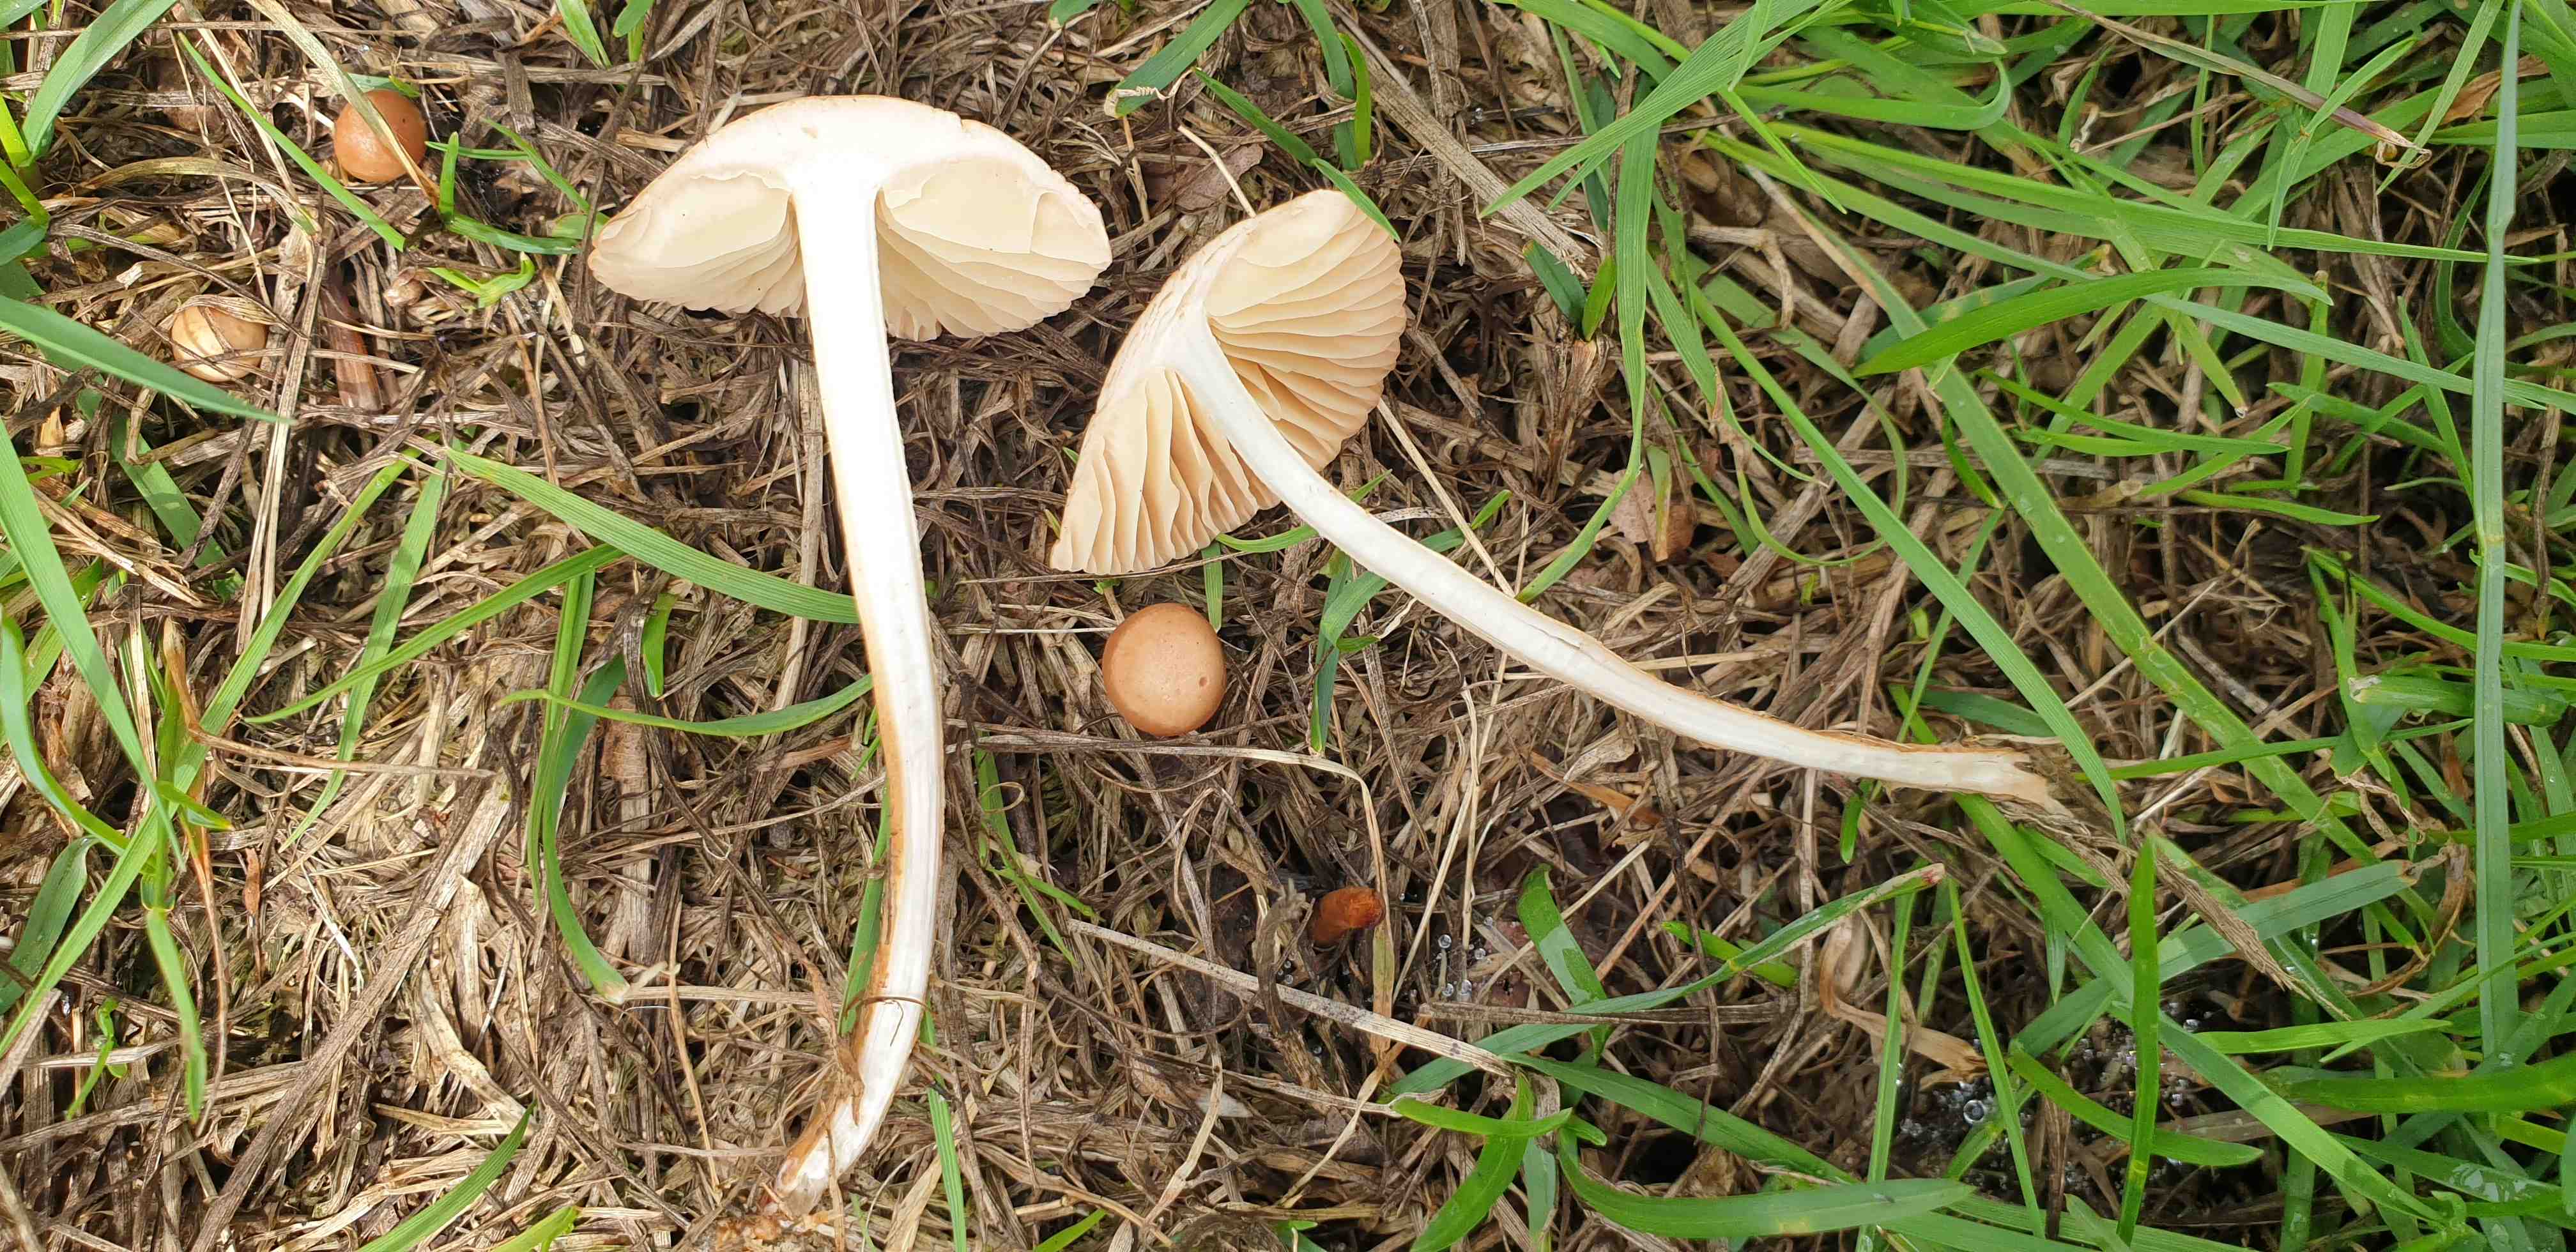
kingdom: Fungi
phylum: Basidiomycota
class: Agaricomycetes
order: Agaricales
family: Marasmiaceae
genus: Marasmius
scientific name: Marasmius oreades
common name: elledans-bruskhat
